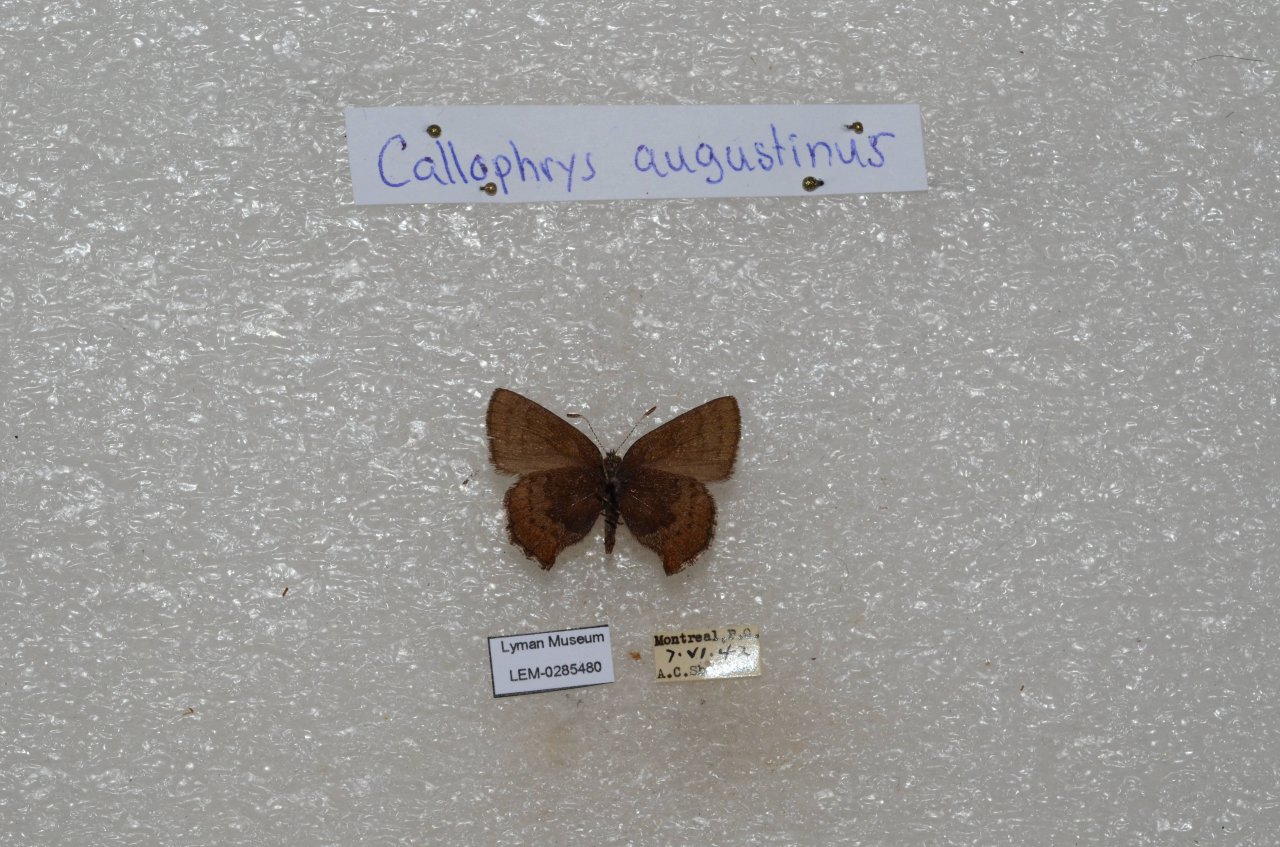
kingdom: Animalia
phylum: Arthropoda
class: Insecta
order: Lepidoptera
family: Lycaenidae
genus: Incisalia
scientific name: Incisalia irioides
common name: Brown Elfin
